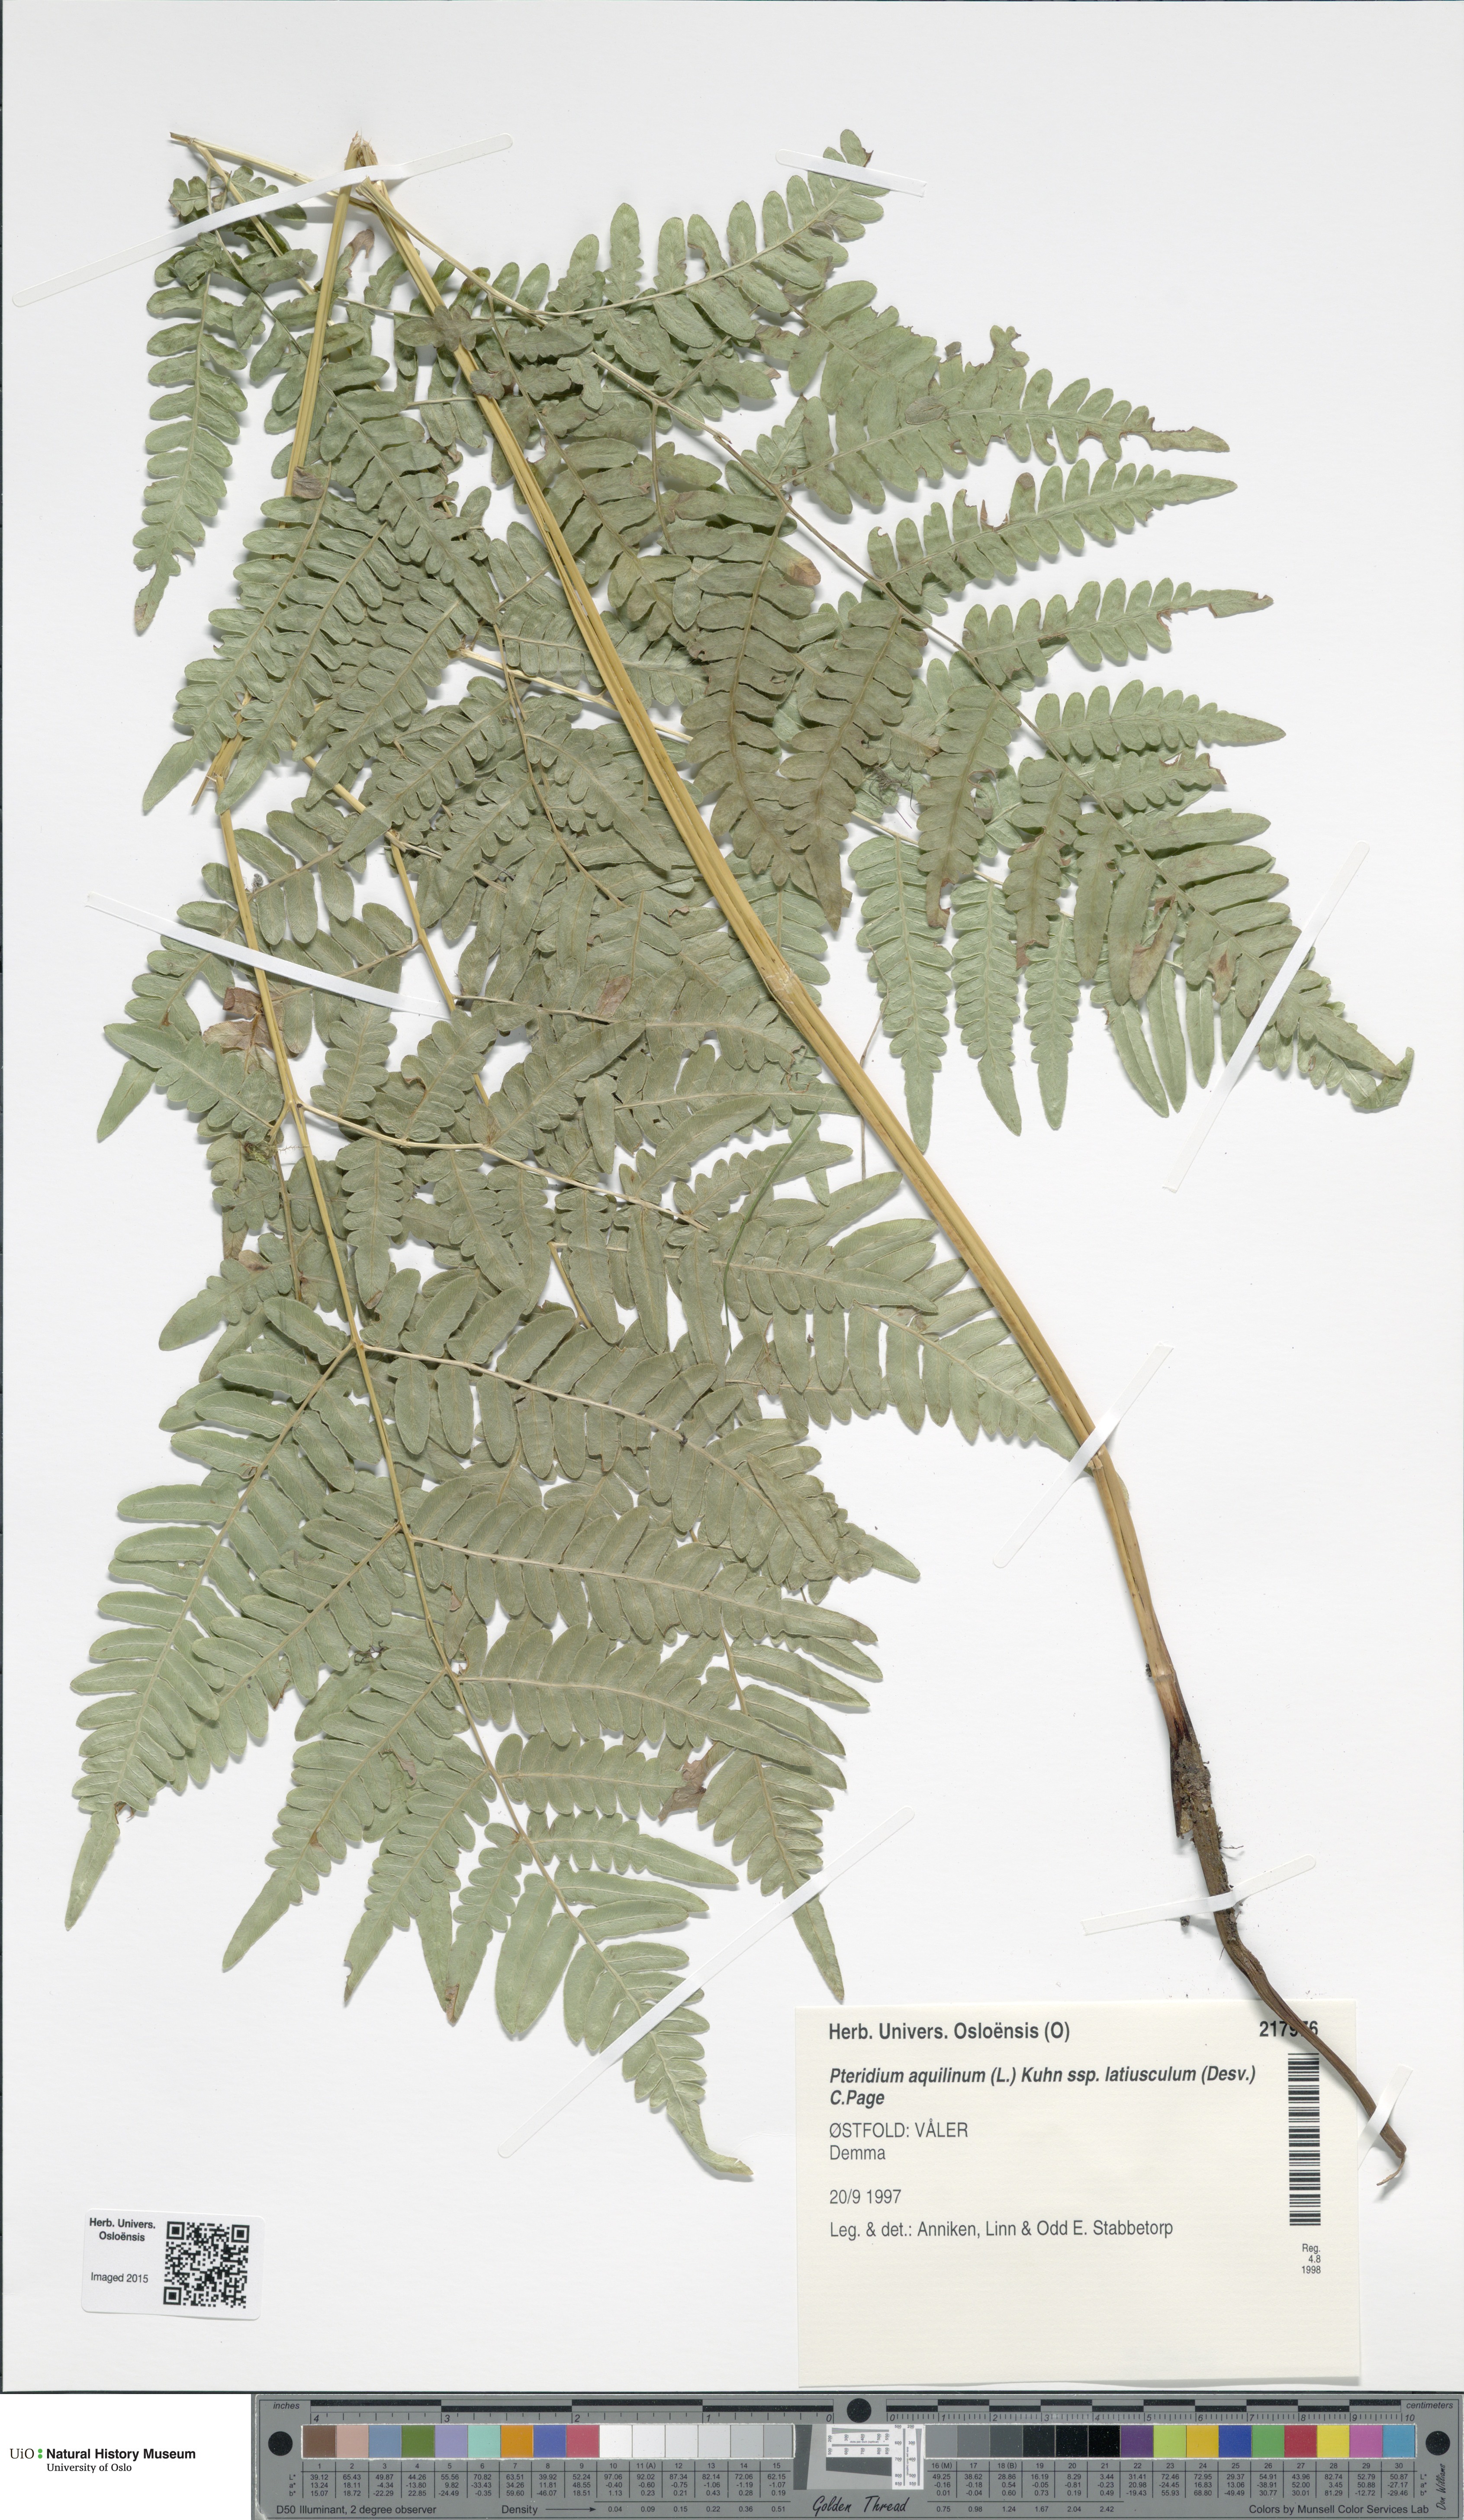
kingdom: Plantae
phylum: Tracheophyta
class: Polypodiopsida
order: Polypodiales
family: Dennstaedtiaceae
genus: Pteridium
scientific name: Pteridium aquilinum
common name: Bracken
